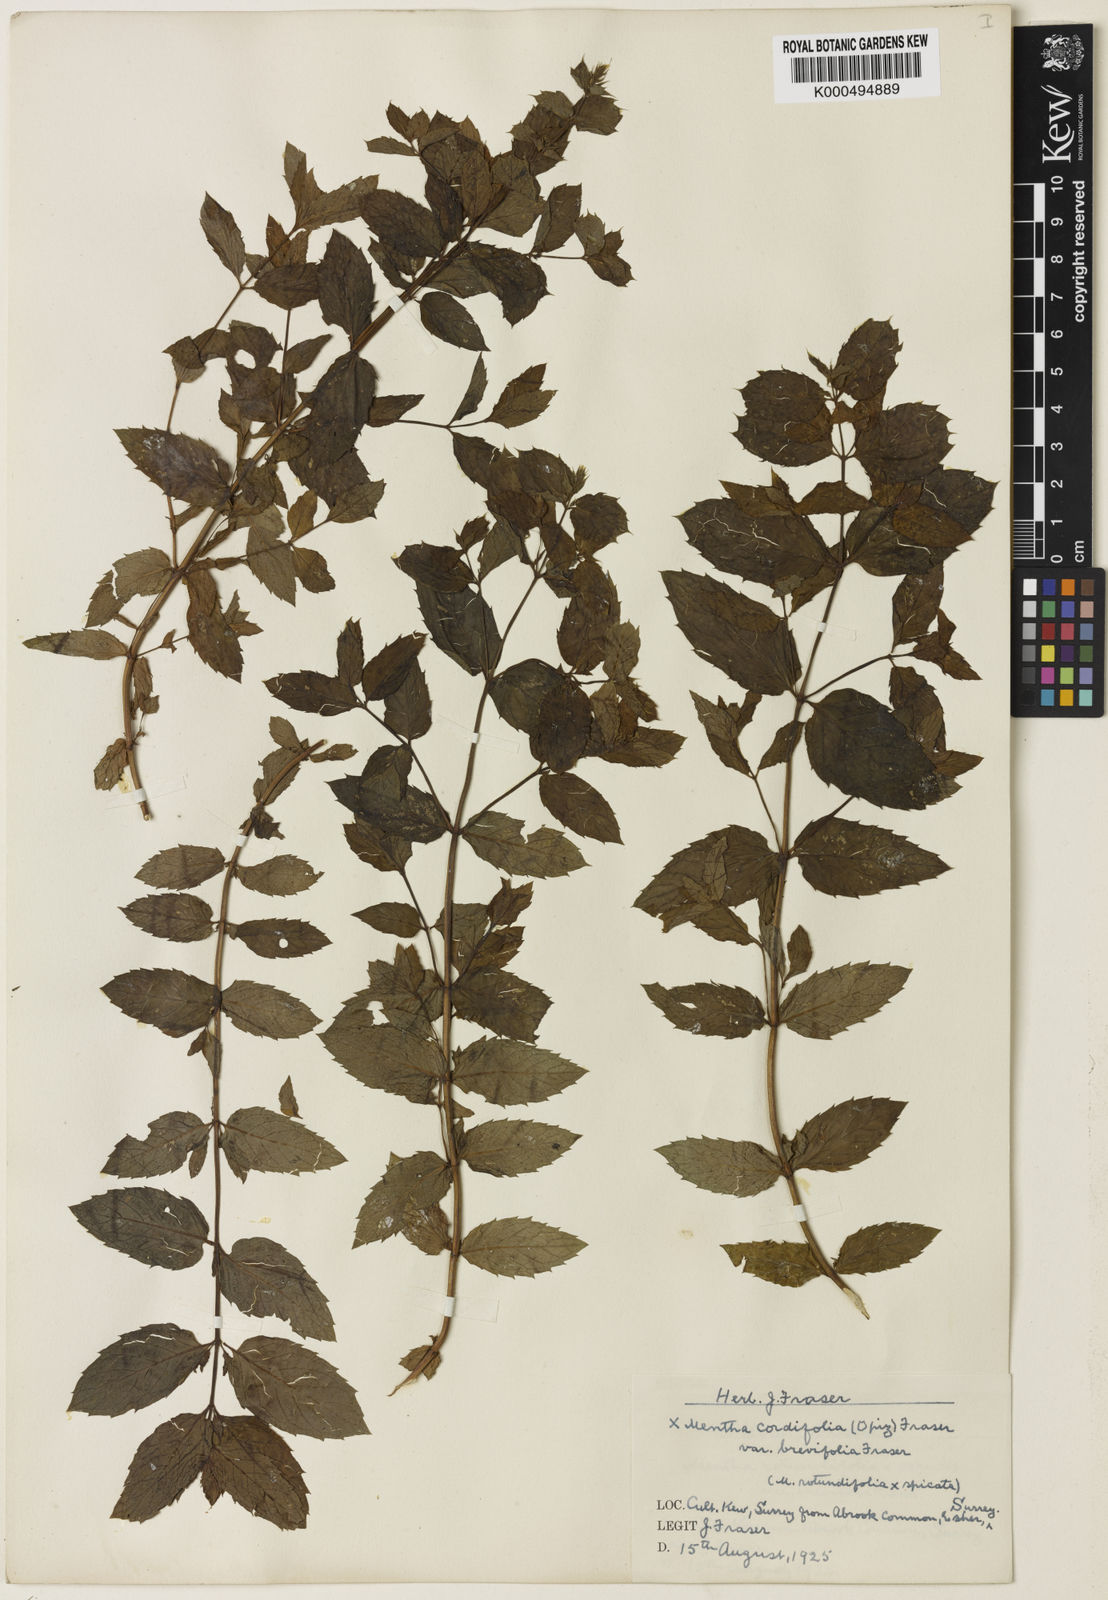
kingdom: Plantae
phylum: Tracheophyta
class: Magnoliopsida
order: Lamiales
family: Lamiaceae
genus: Mentha
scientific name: Mentha villosa
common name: Apple mint
